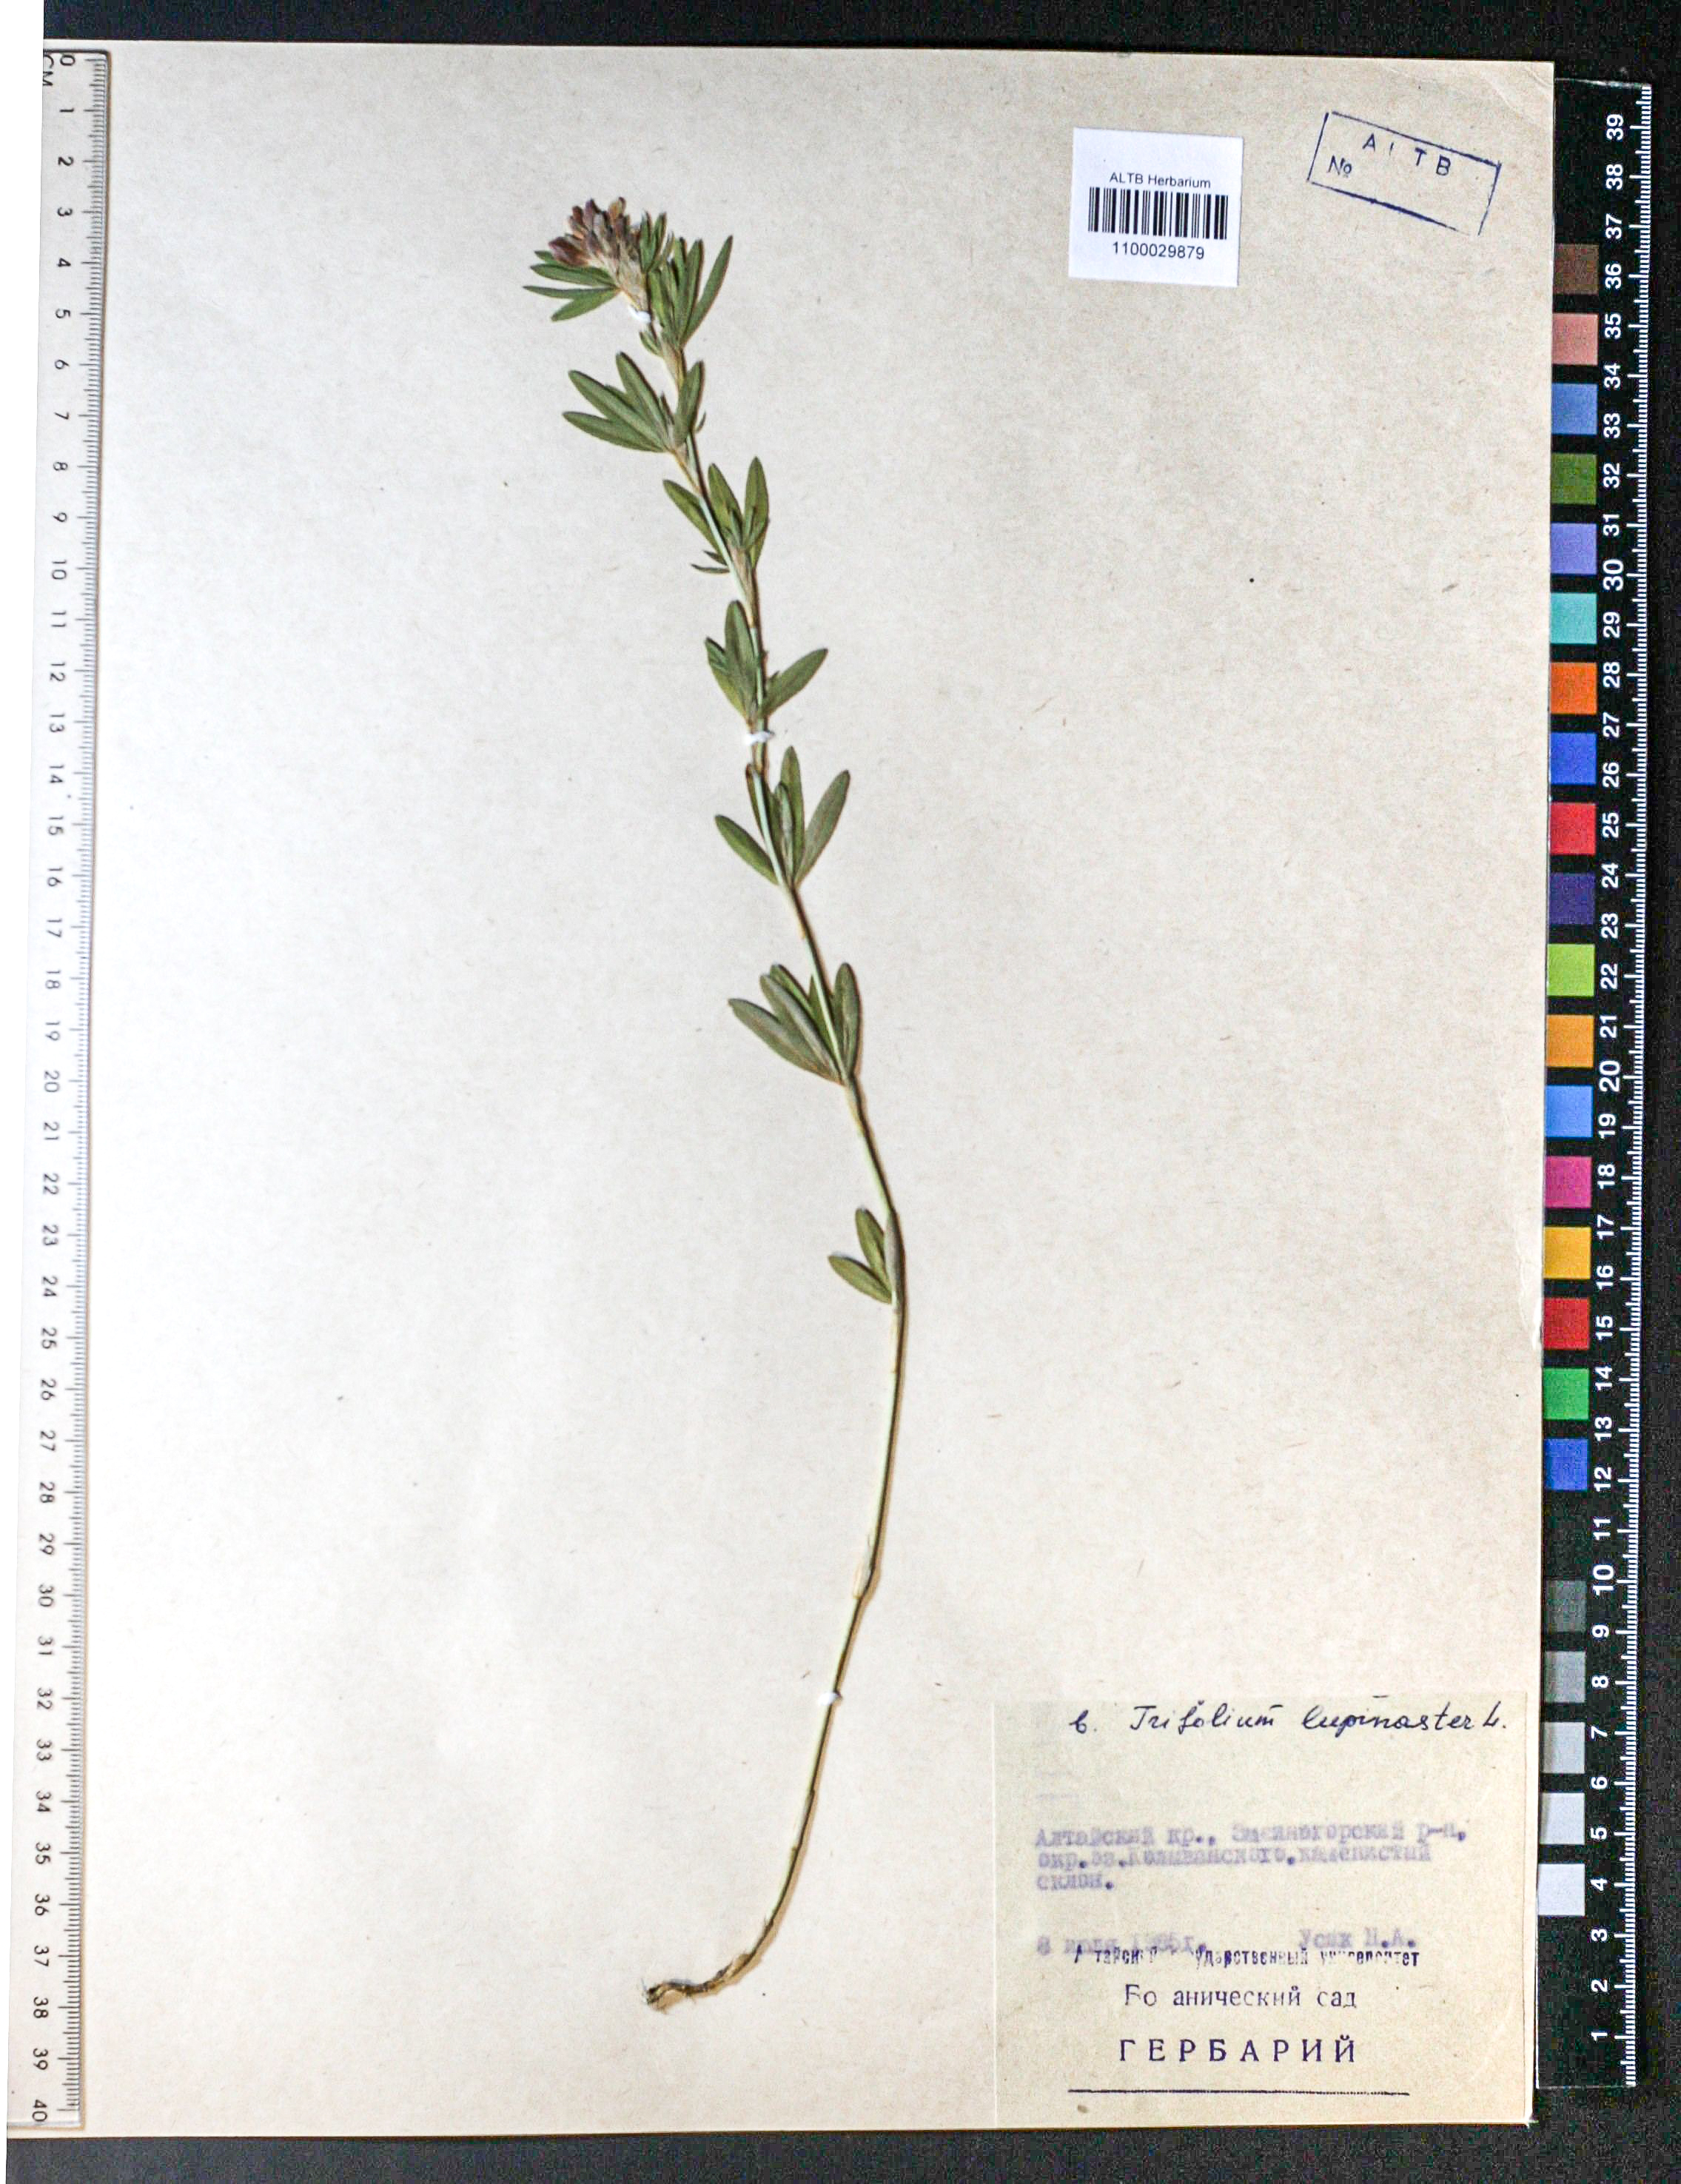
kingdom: Plantae
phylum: Tracheophyta
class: Magnoliopsida
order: Fabales
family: Fabaceae
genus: Trifolium
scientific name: Trifolium lupinaster
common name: Lupine clover
